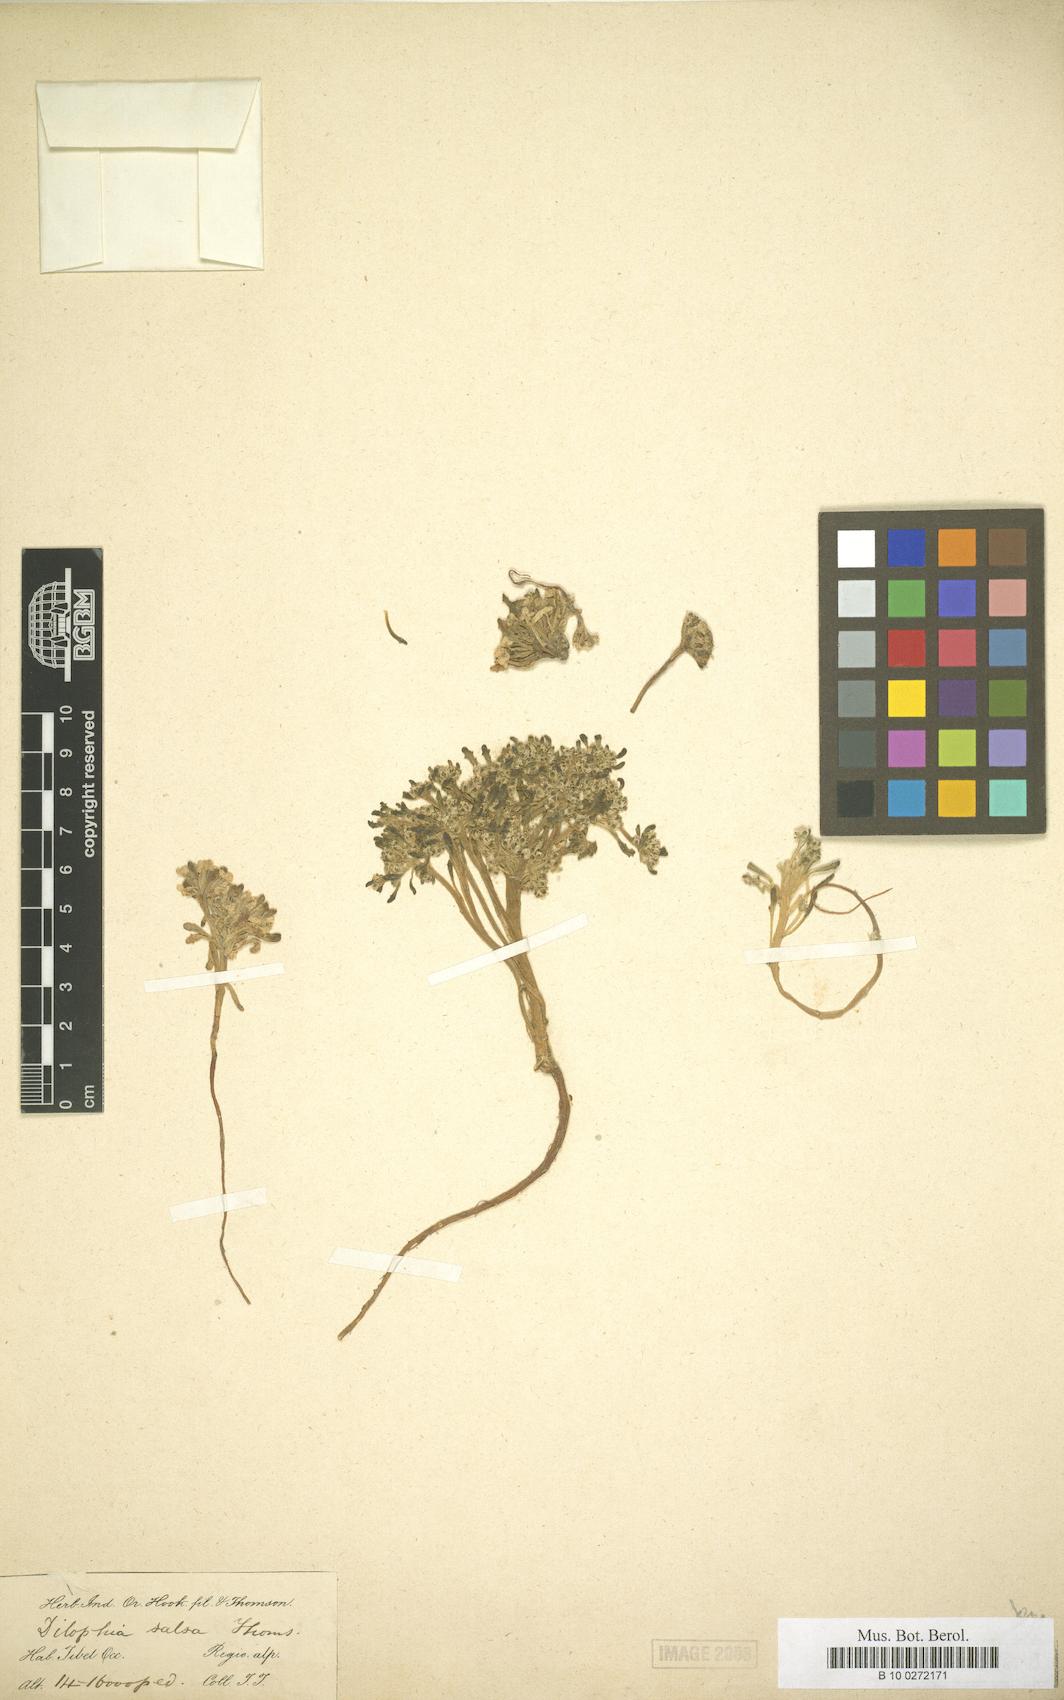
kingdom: Plantae
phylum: Tracheophyta
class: Magnoliopsida
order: Brassicales
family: Brassicaceae
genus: Dilophia
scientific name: Dilophia salsa
